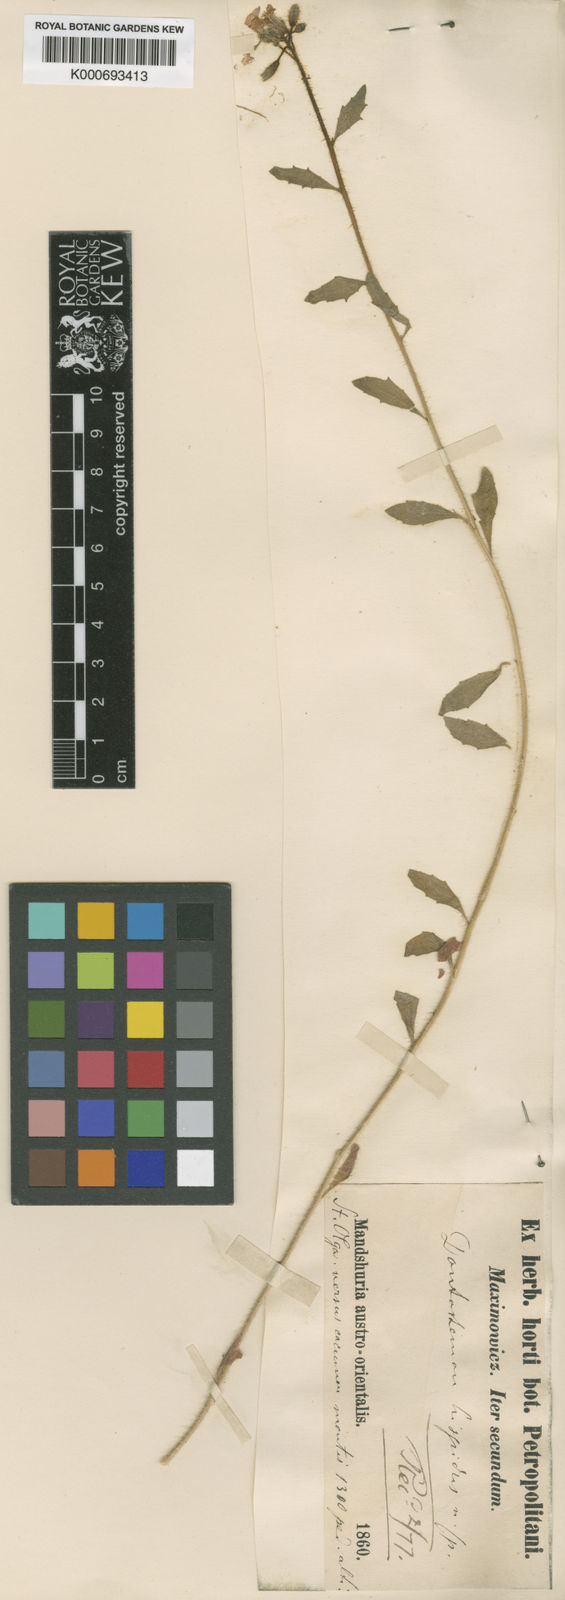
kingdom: Plantae
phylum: Tracheophyta
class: Magnoliopsida
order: Brassicales
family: Brassicaceae
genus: Dontostemon
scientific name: Dontostemon hispidus
